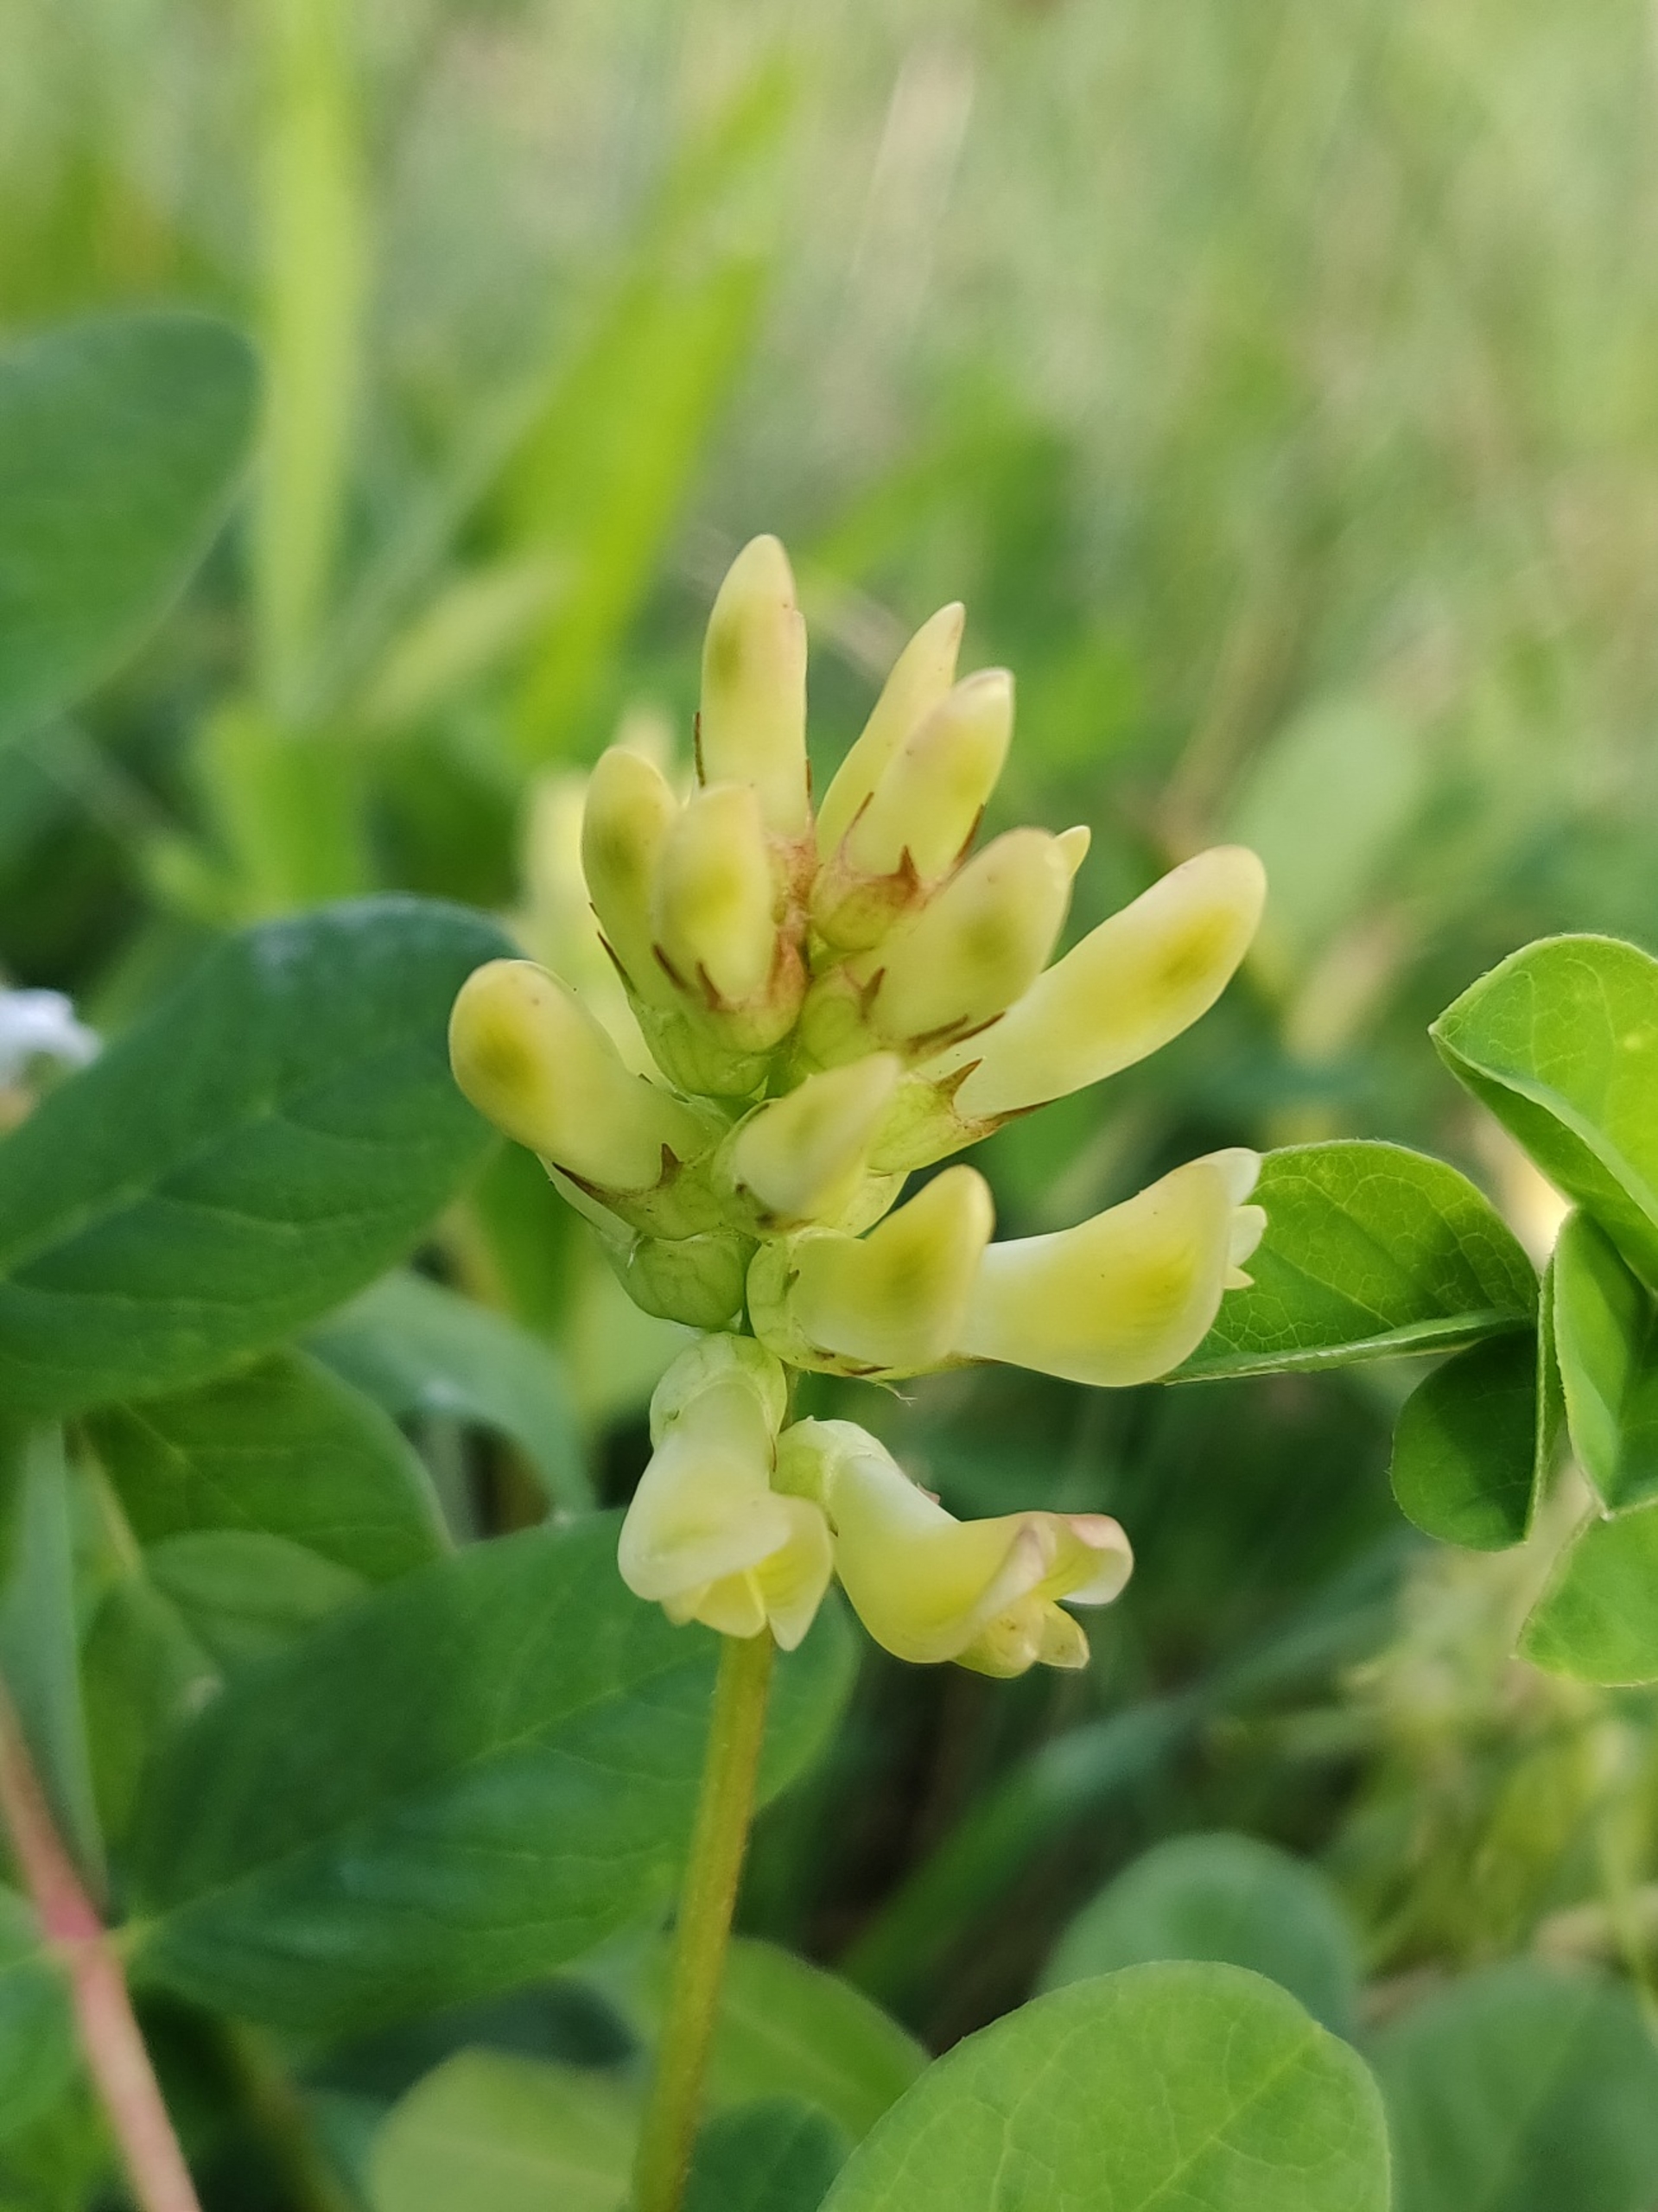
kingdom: Plantae
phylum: Tracheophyta
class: Magnoliopsida
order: Fabales
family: Fabaceae
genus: Astragalus
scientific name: Astragalus glycyphyllos
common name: Sød astragel
